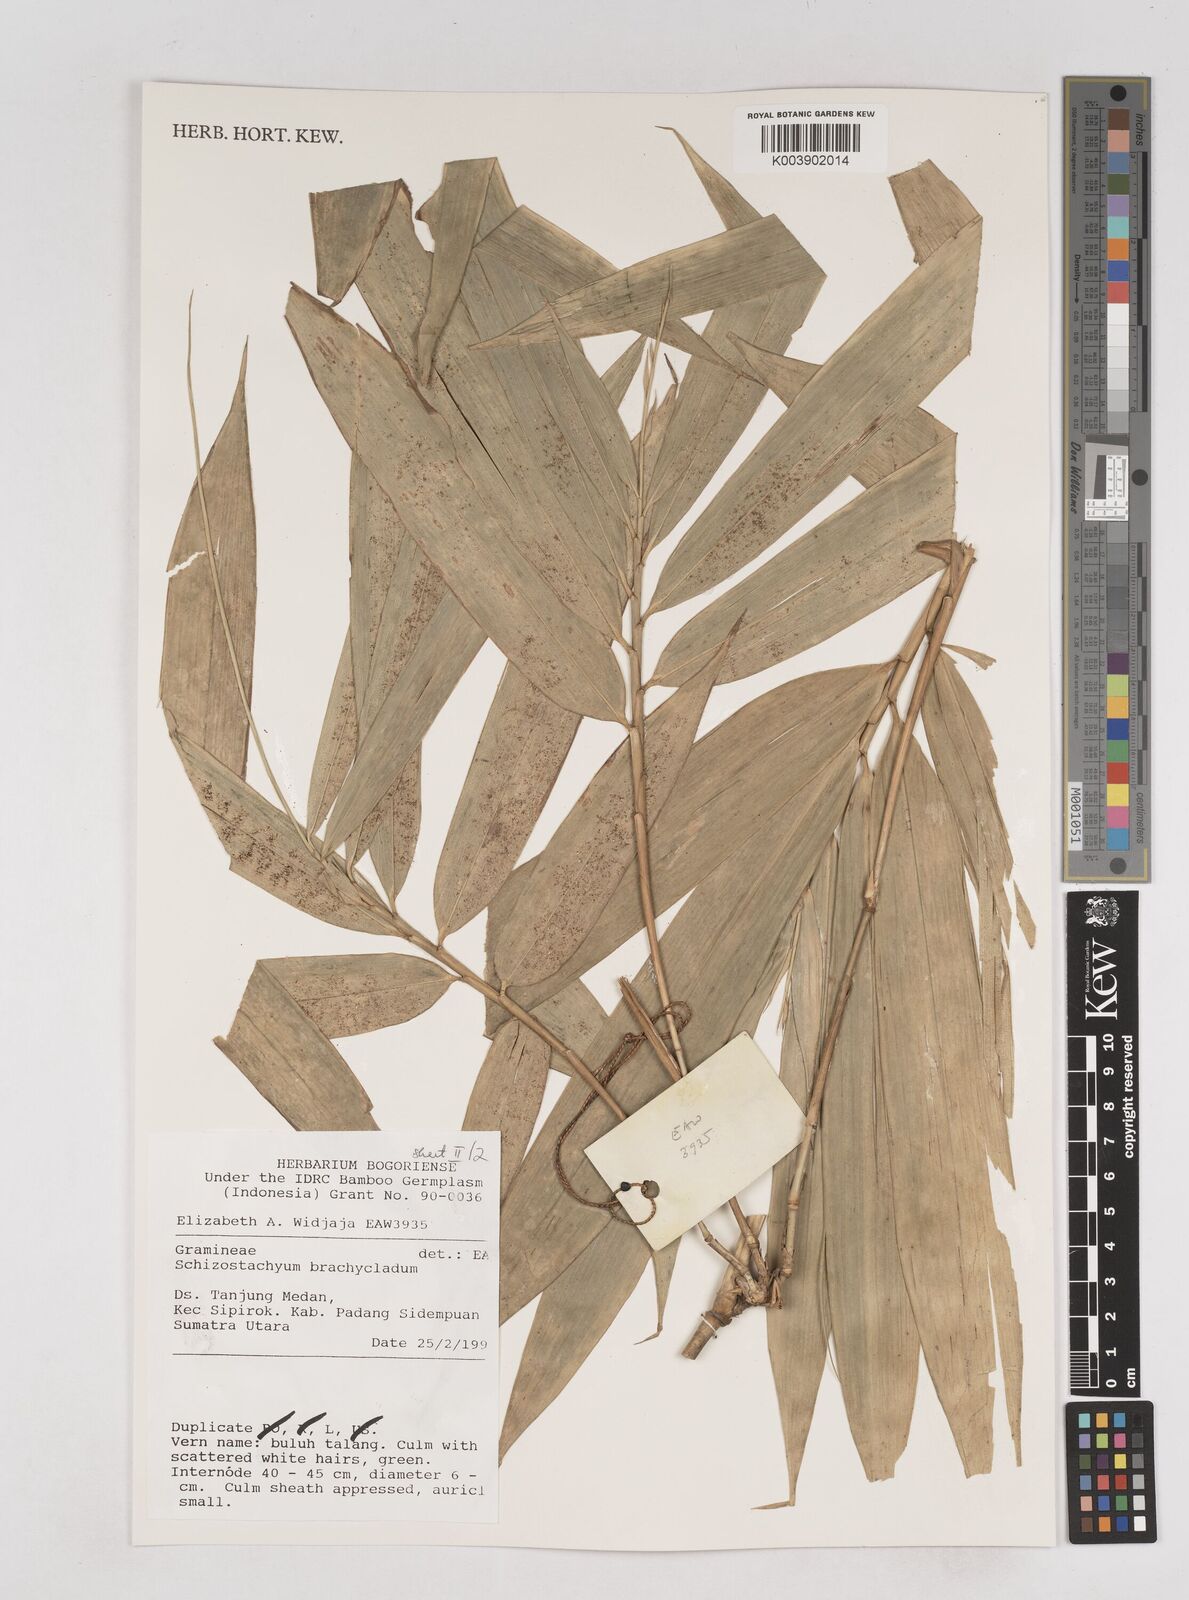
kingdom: Plantae
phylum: Tracheophyta
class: Liliopsida
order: Poales
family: Poaceae
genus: Schizostachyum
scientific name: Schizostachyum brachycladum
